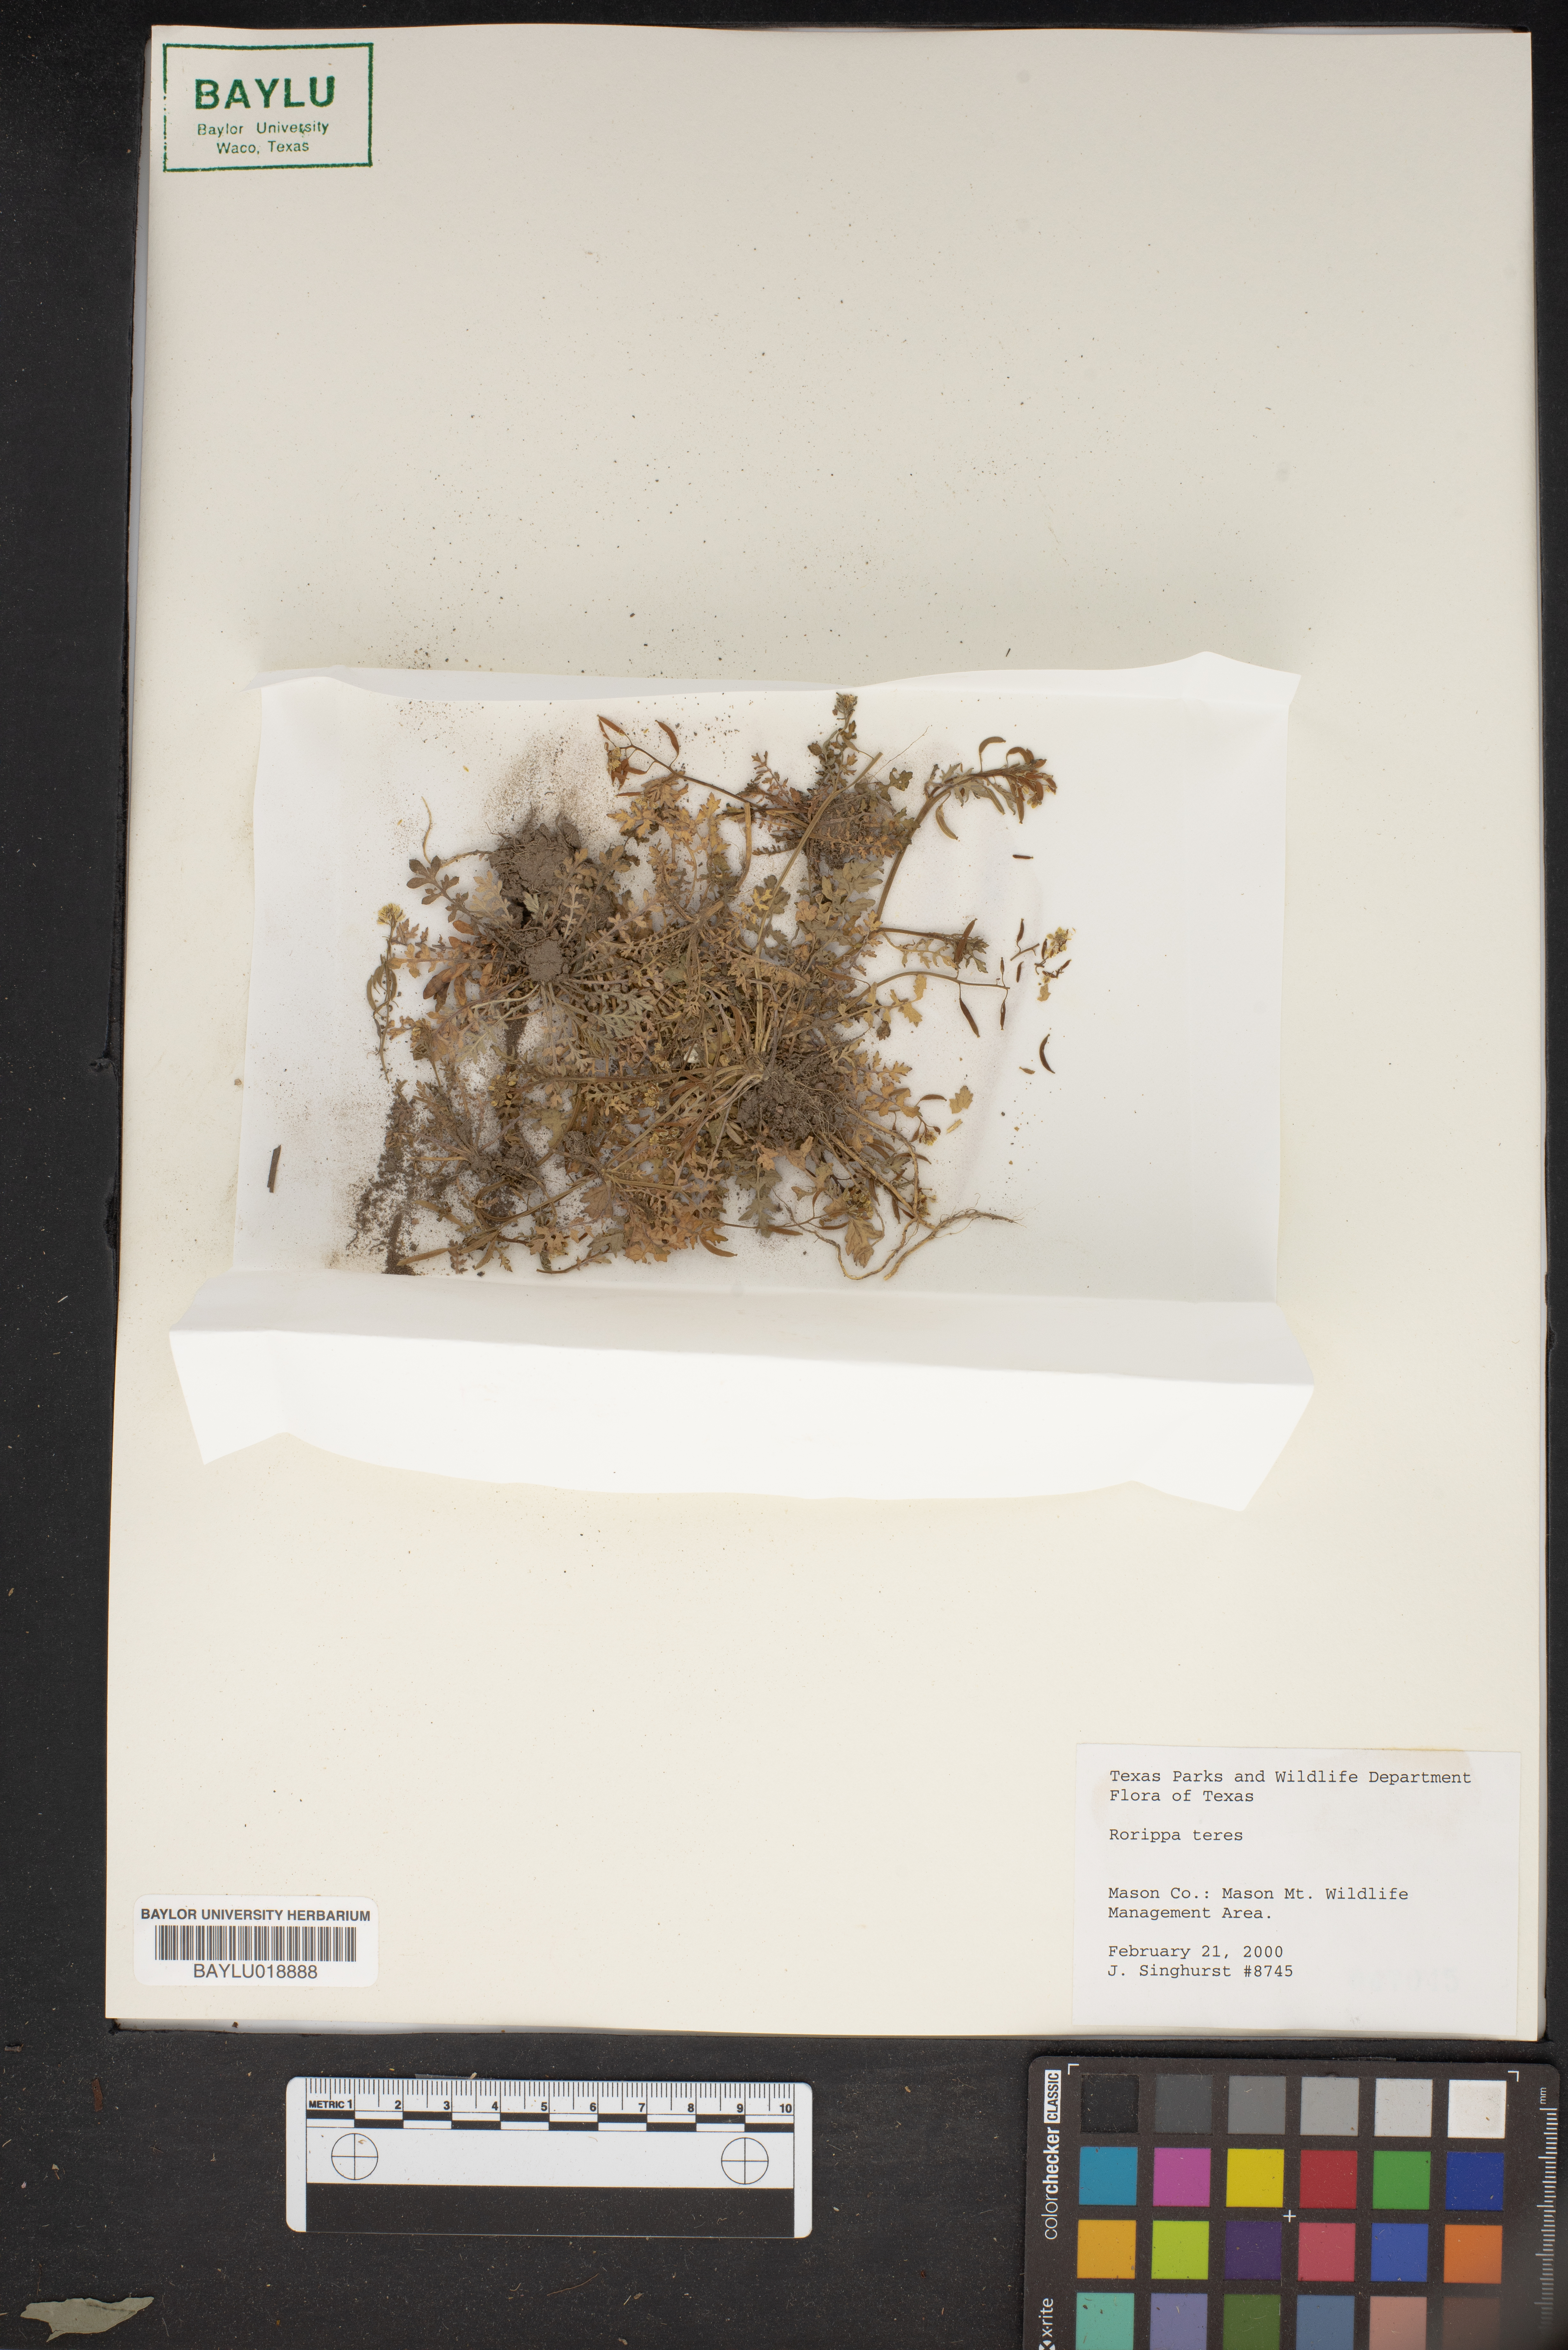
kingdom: Plantae
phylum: Tracheophyta
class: Magnoliopsida
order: Brassicales
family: Brassicaceae
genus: Rorippa
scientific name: Rorippa teres
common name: Southern marsh yellowcress
